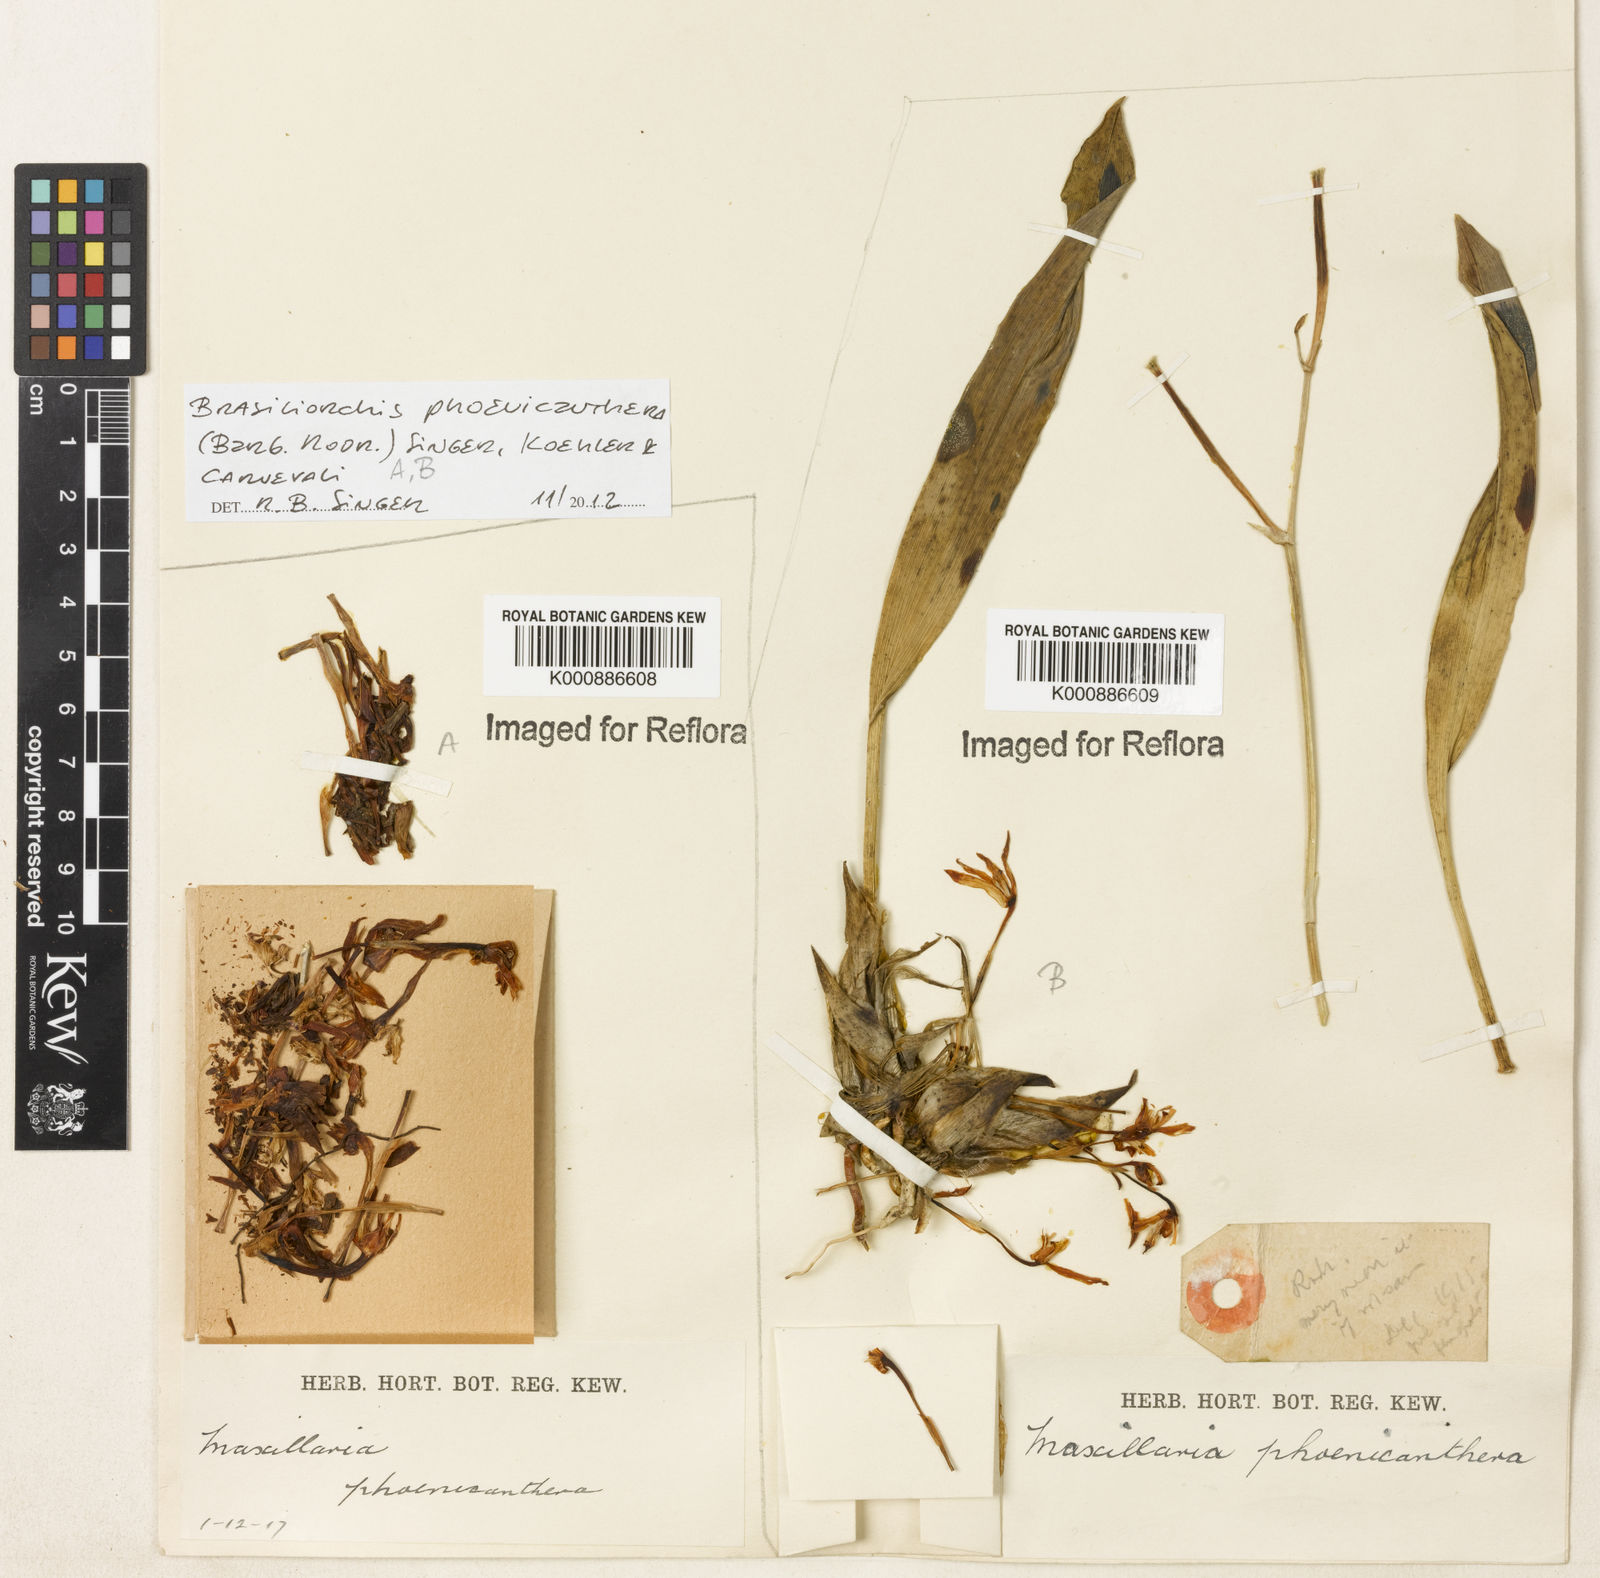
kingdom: Plantae
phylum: Tracheophyta
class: Liliopsida
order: Asparagales
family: Orchidaceae
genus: Maxillaria
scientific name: Maxillaria phoenicanthera
